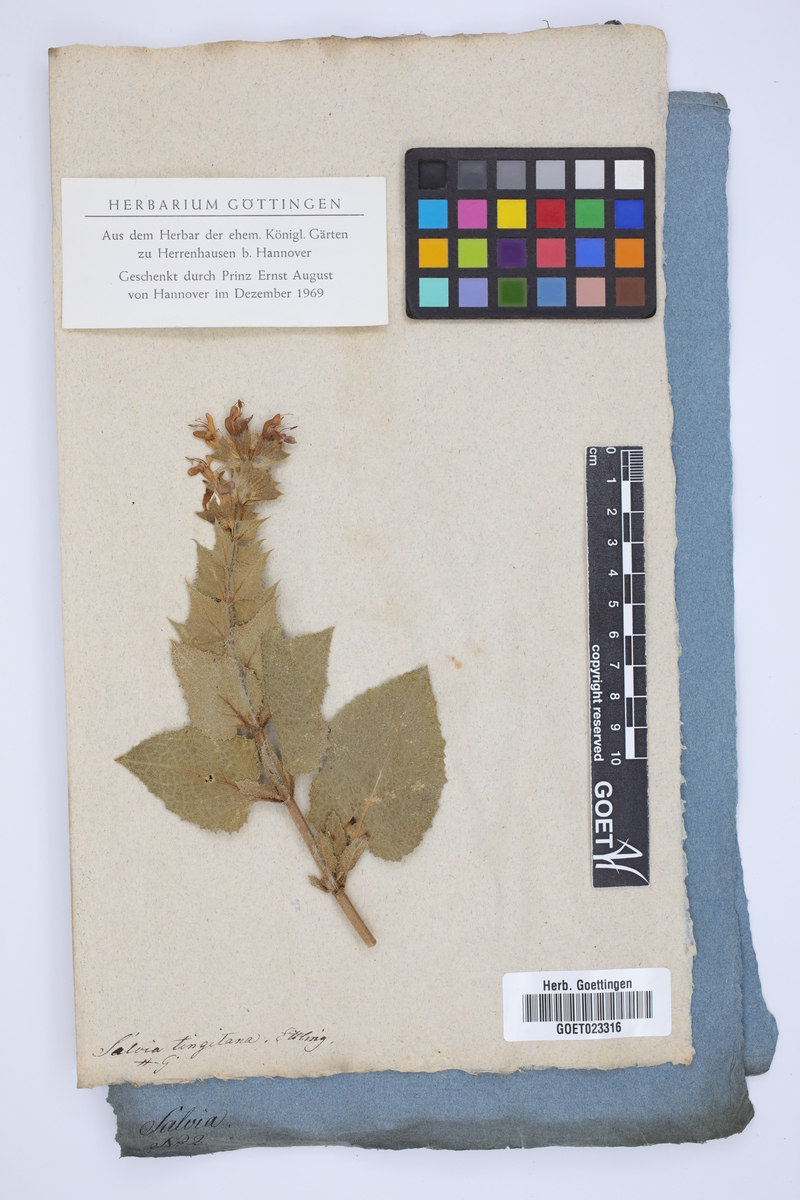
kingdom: Plantae
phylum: Tracheophyta
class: Magnoliopsida
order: Lamiales
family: Lamiaceae
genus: Salvia
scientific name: Salvia tingitana
